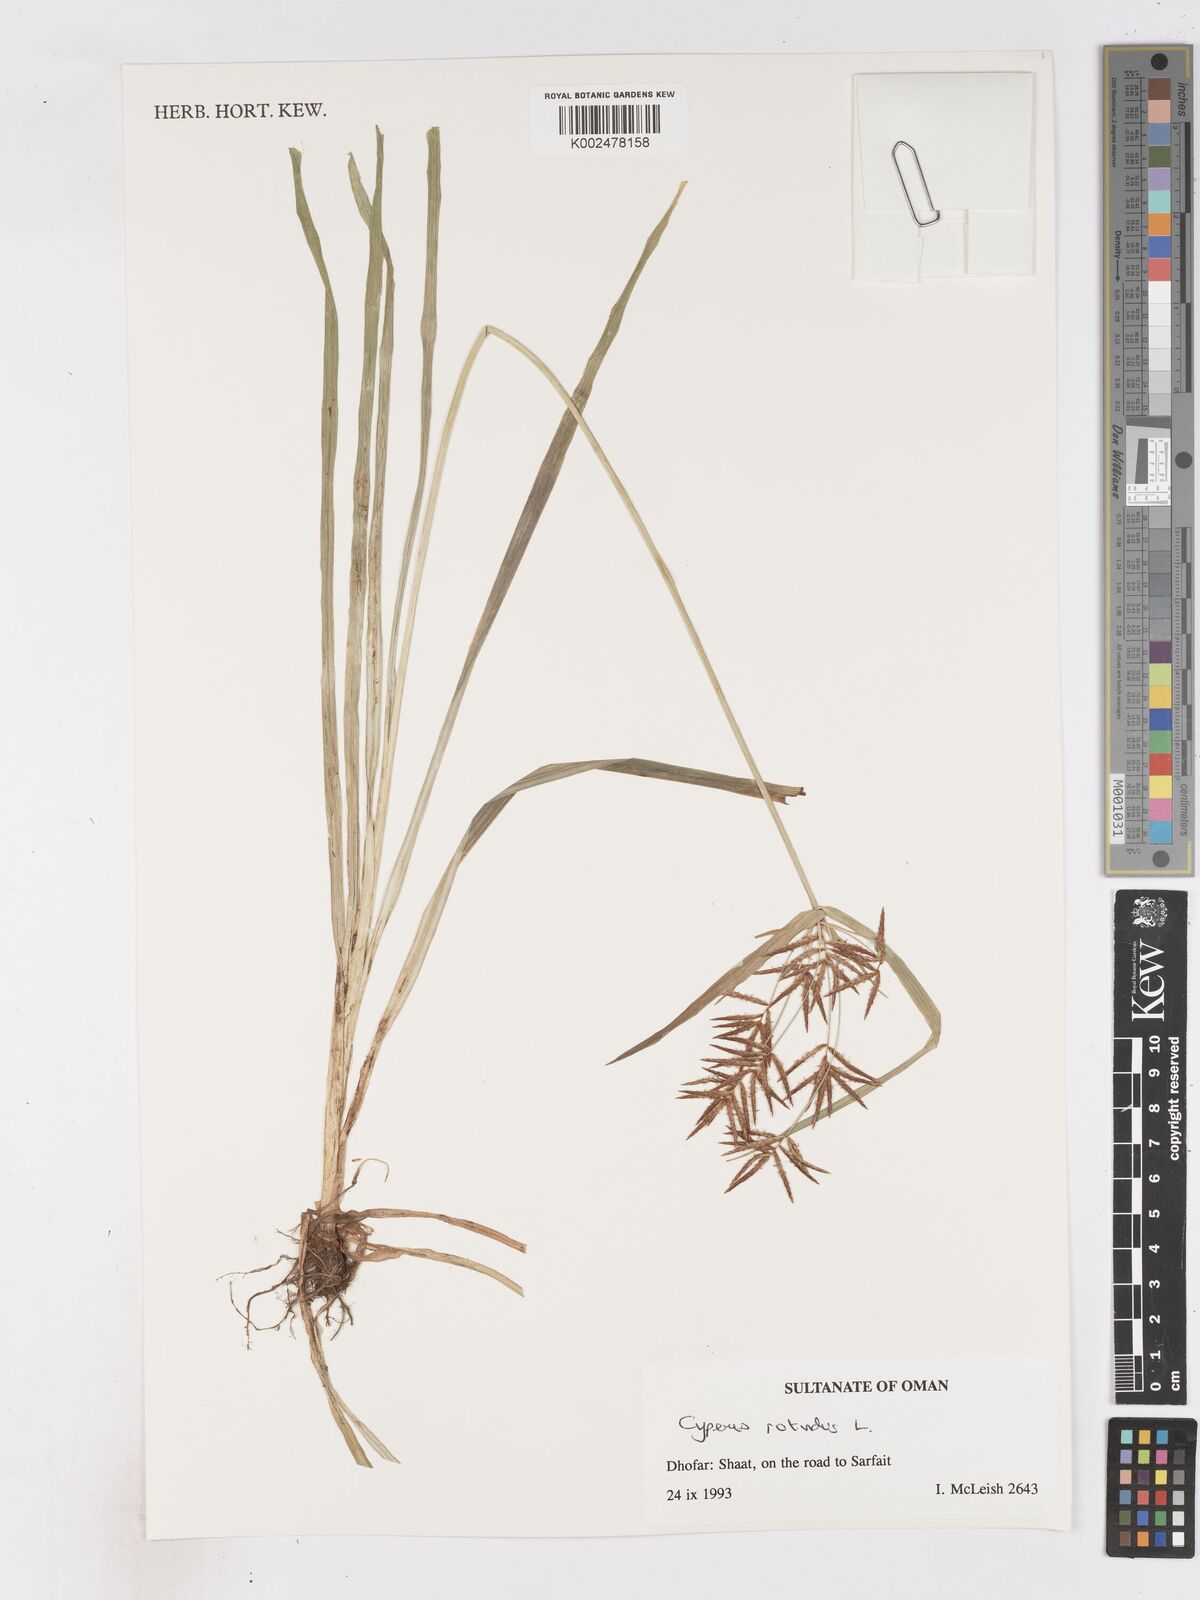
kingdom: Plantae
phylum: Tracheophyta
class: Liliopsida
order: Poales
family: Cyperaceae
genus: Cyperus
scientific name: Cyperus rotundus
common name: Nutgrass
